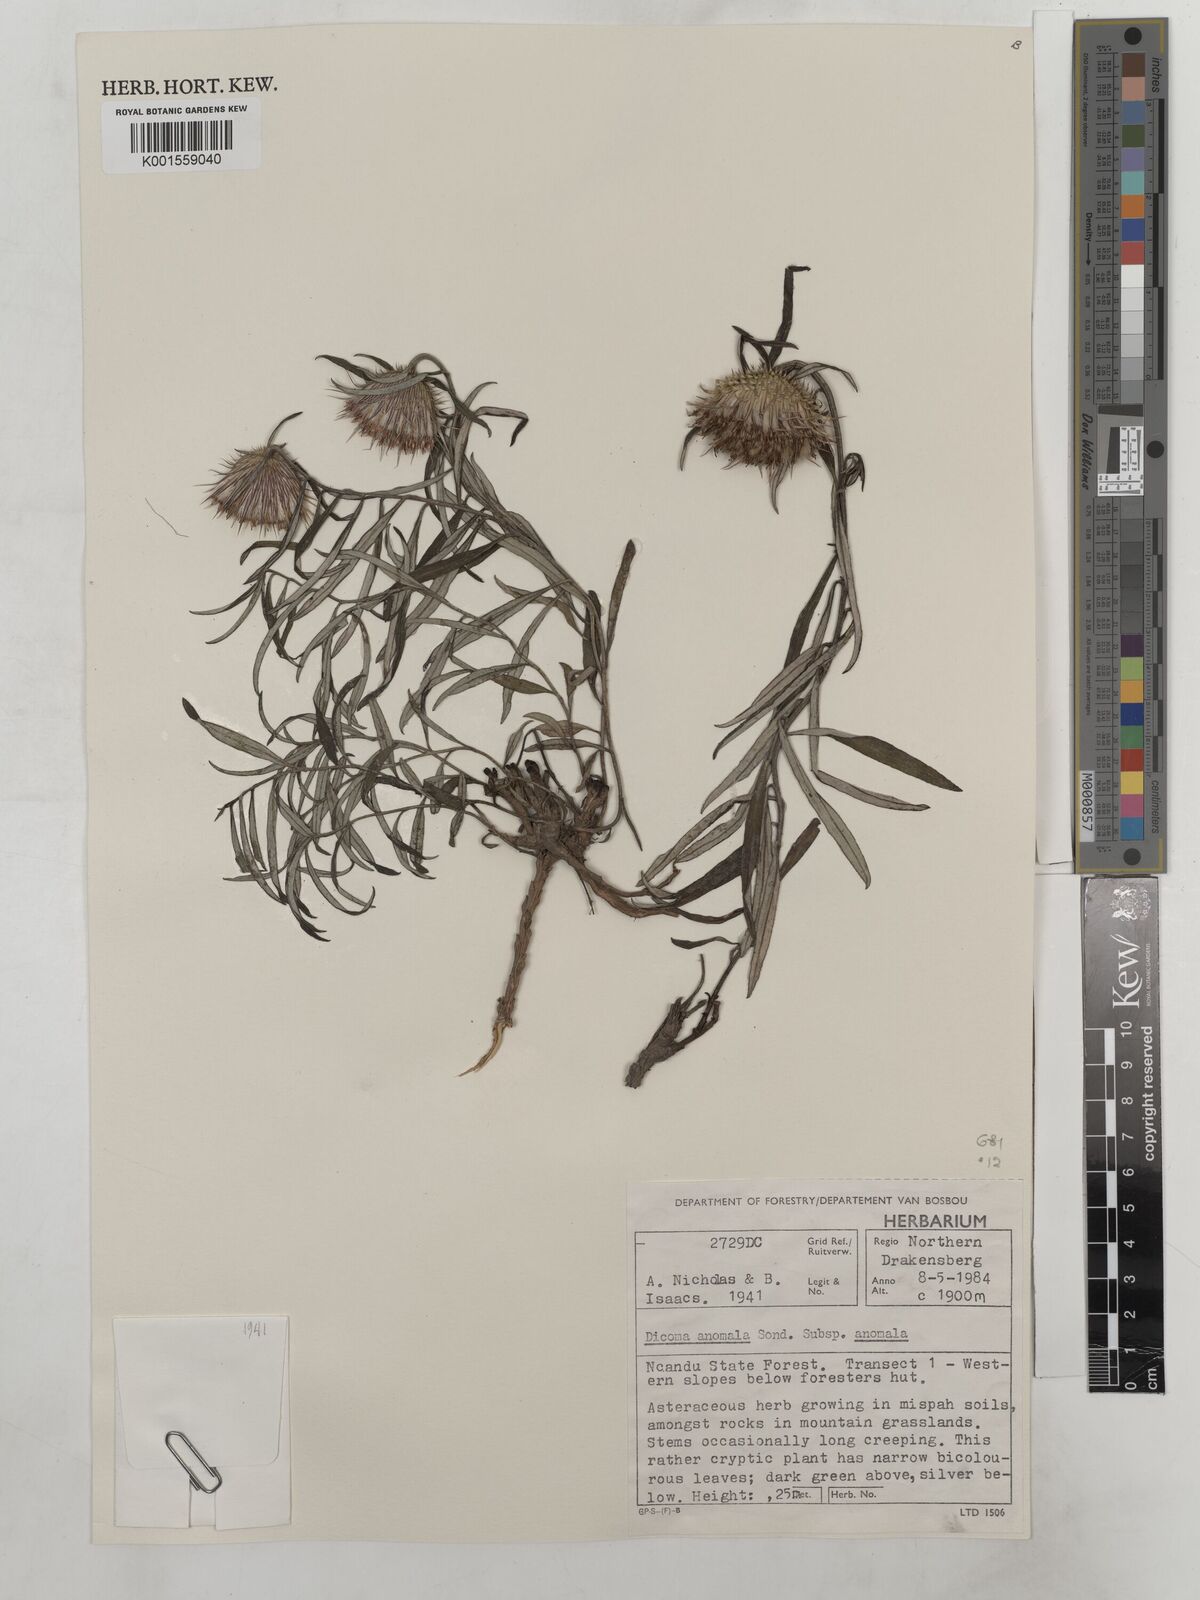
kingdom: Plantae
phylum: Tracheophyta
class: Magnoliopsida
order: Asterales
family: Asteraceae
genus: Dicoma
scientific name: Dicoma anomala
